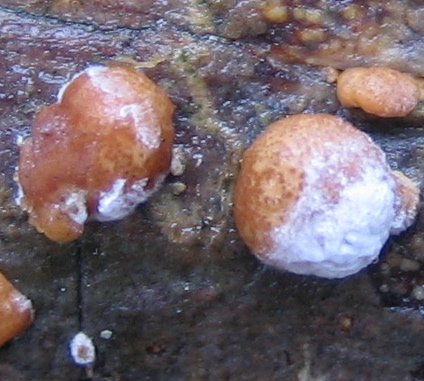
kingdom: Fungi
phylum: Ascomycota
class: Sordariomycetes
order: Hypocreales
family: Hypocreaceae
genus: Trichoderma
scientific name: Trichoderma
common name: kødkerne
